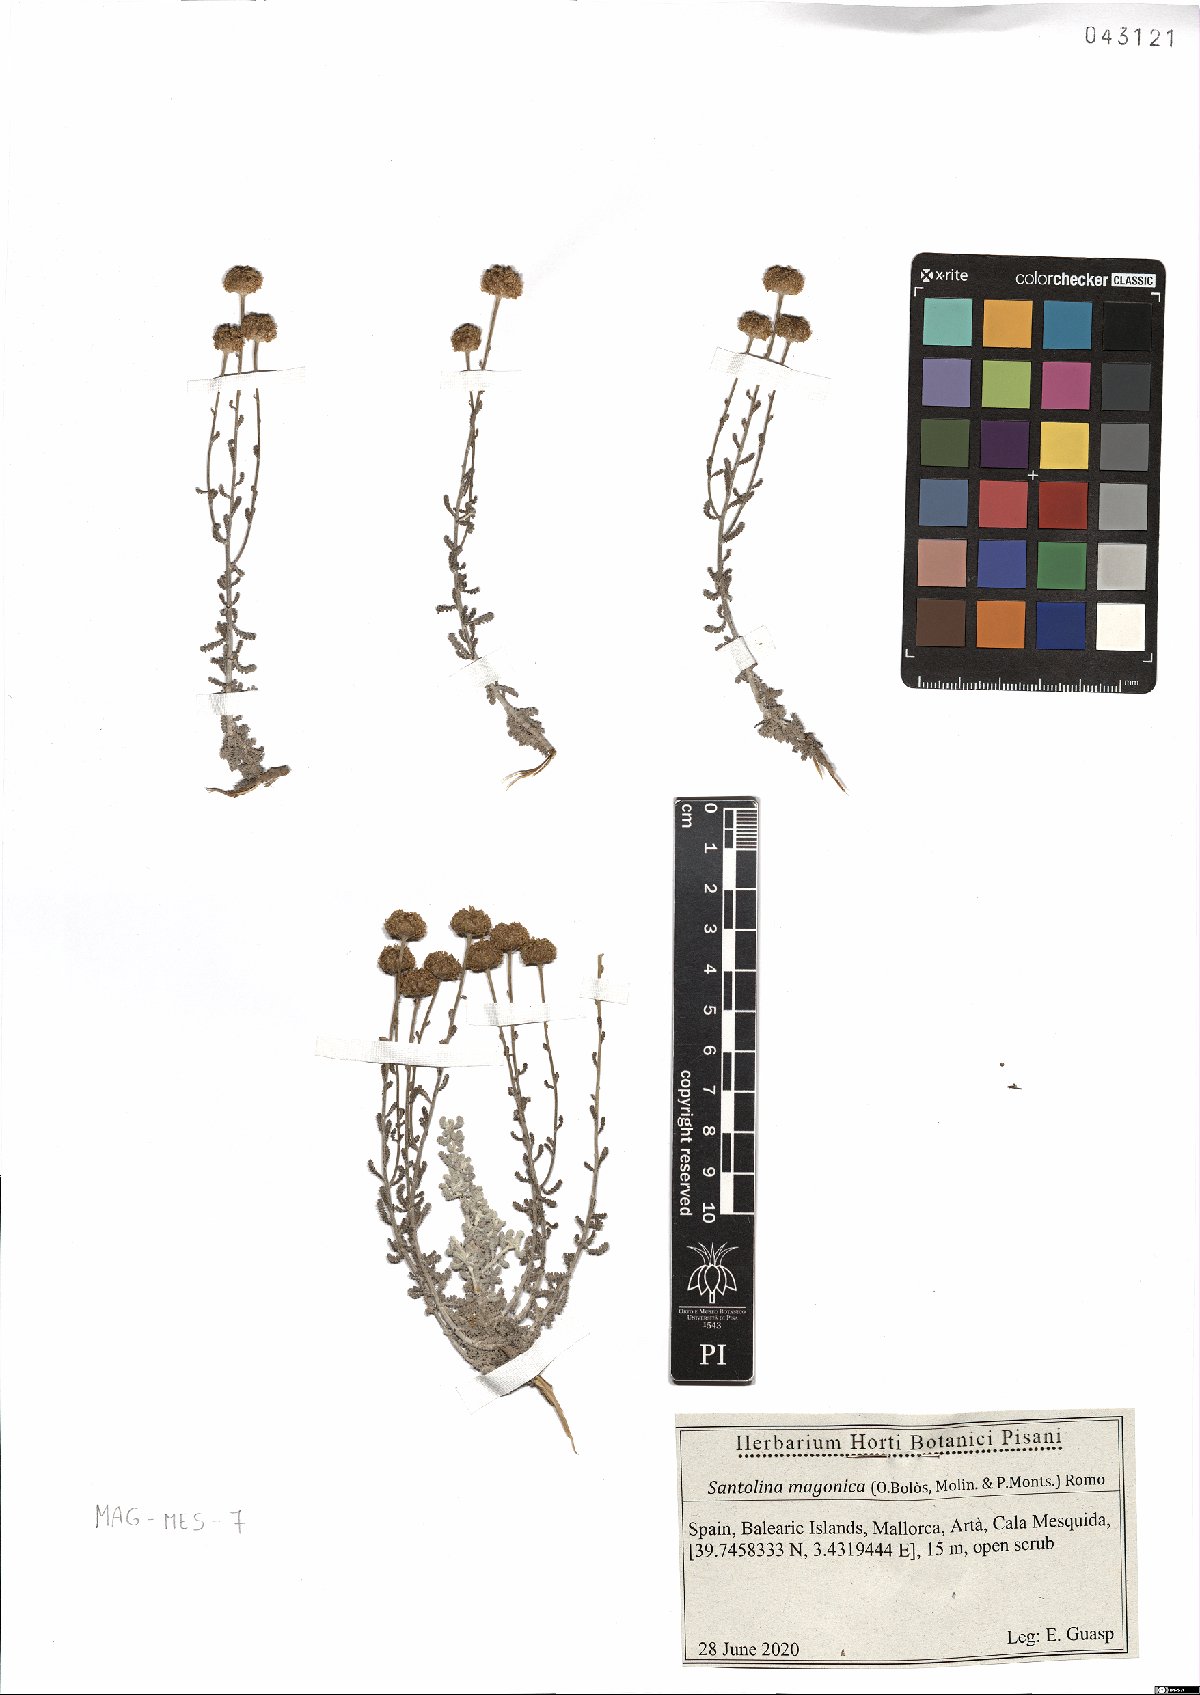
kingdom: Plantae
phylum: Tracheophyta
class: Magnoliopsida
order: Asterales
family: Asteraceae
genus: Santolina
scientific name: Santolina magonica
